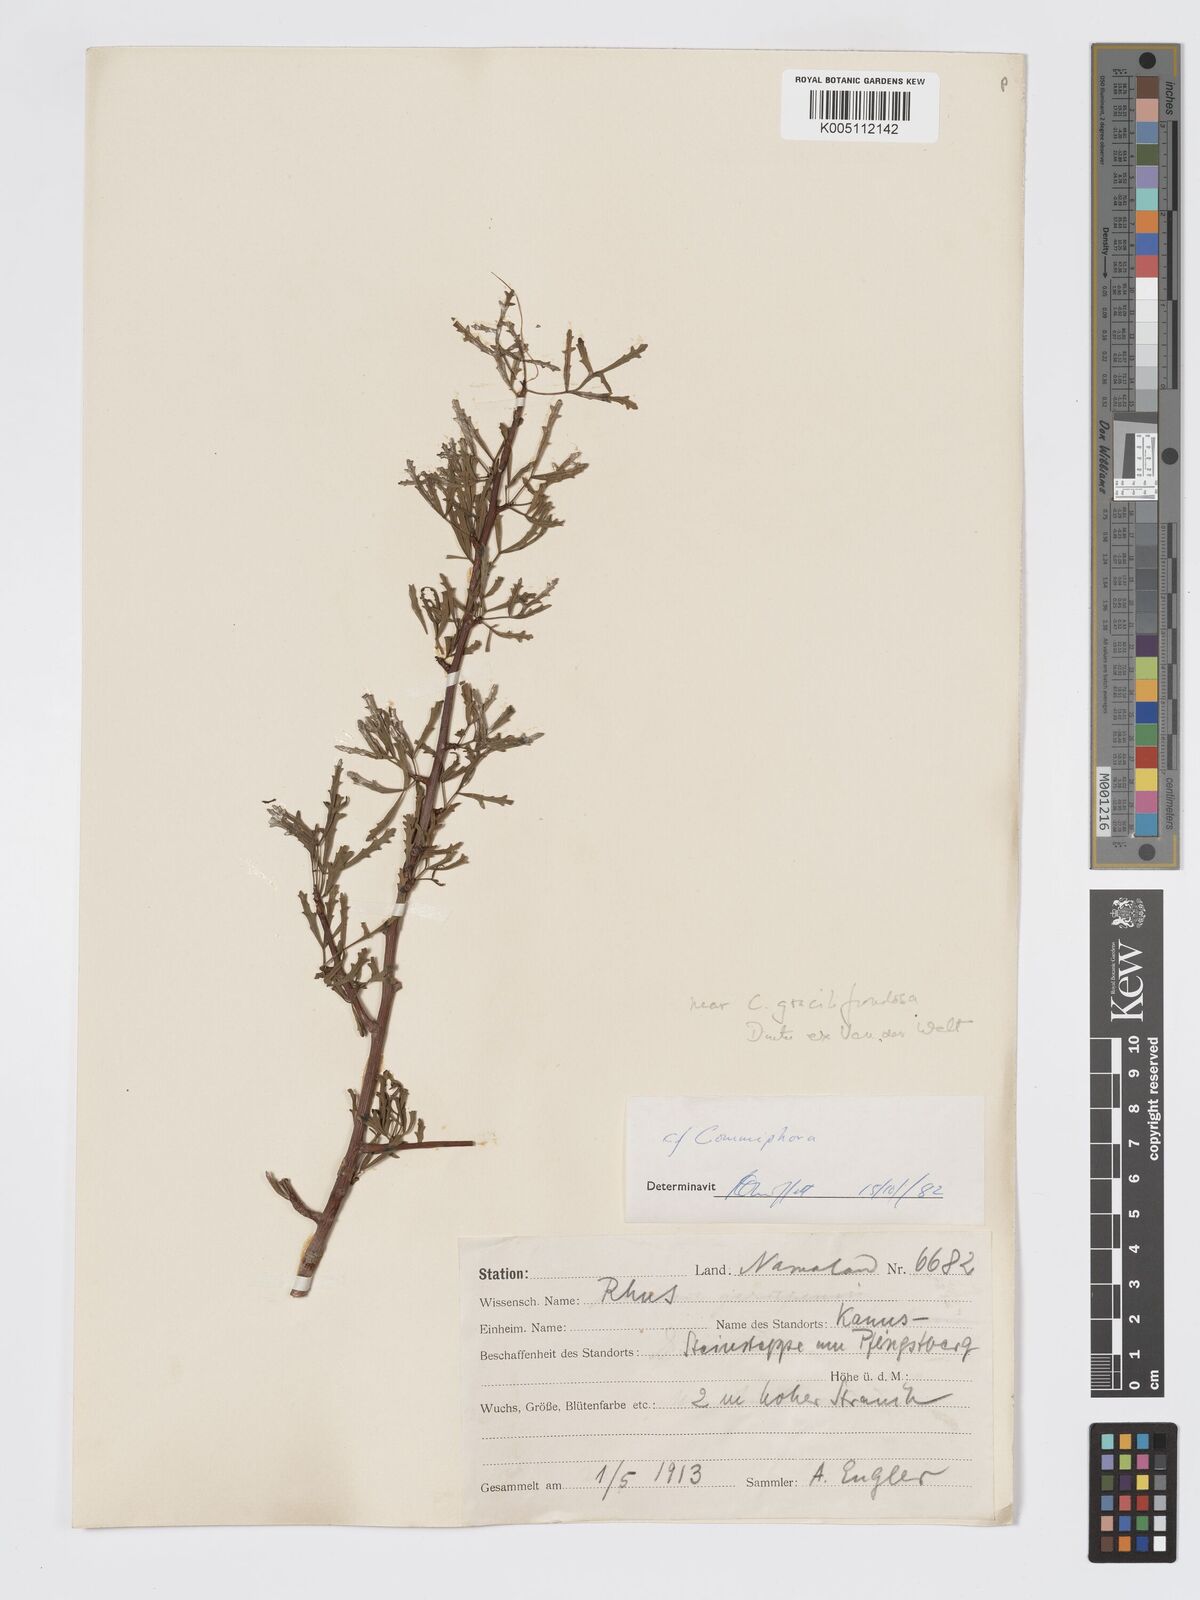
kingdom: Plantae
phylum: Tracheophyta
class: Magnoliopsida
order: Sapindales
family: Burseraceae
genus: Commiphora
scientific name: Commiphora gracilifrondosa
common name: Karee-leaved commiphora
